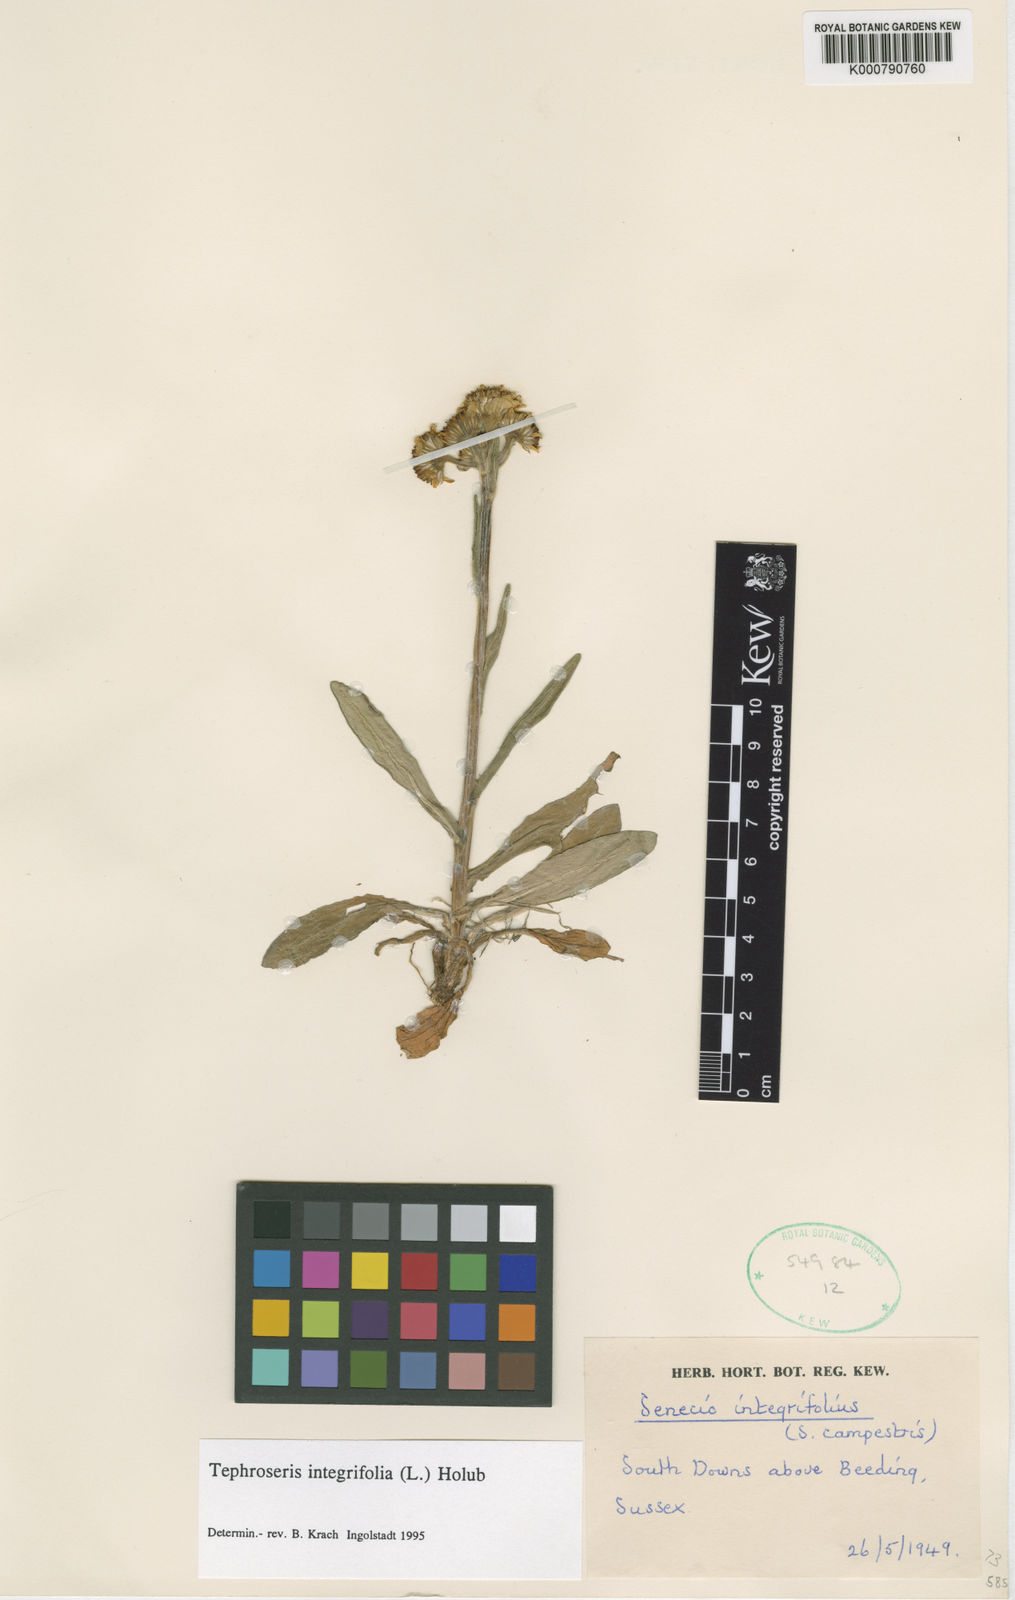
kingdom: Plantae
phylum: Tracheophyta
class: Magnoliopsida
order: Asterales
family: Asteraceae
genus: Tephroseris
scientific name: Tephroseris integrifolia
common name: Field fleawort
